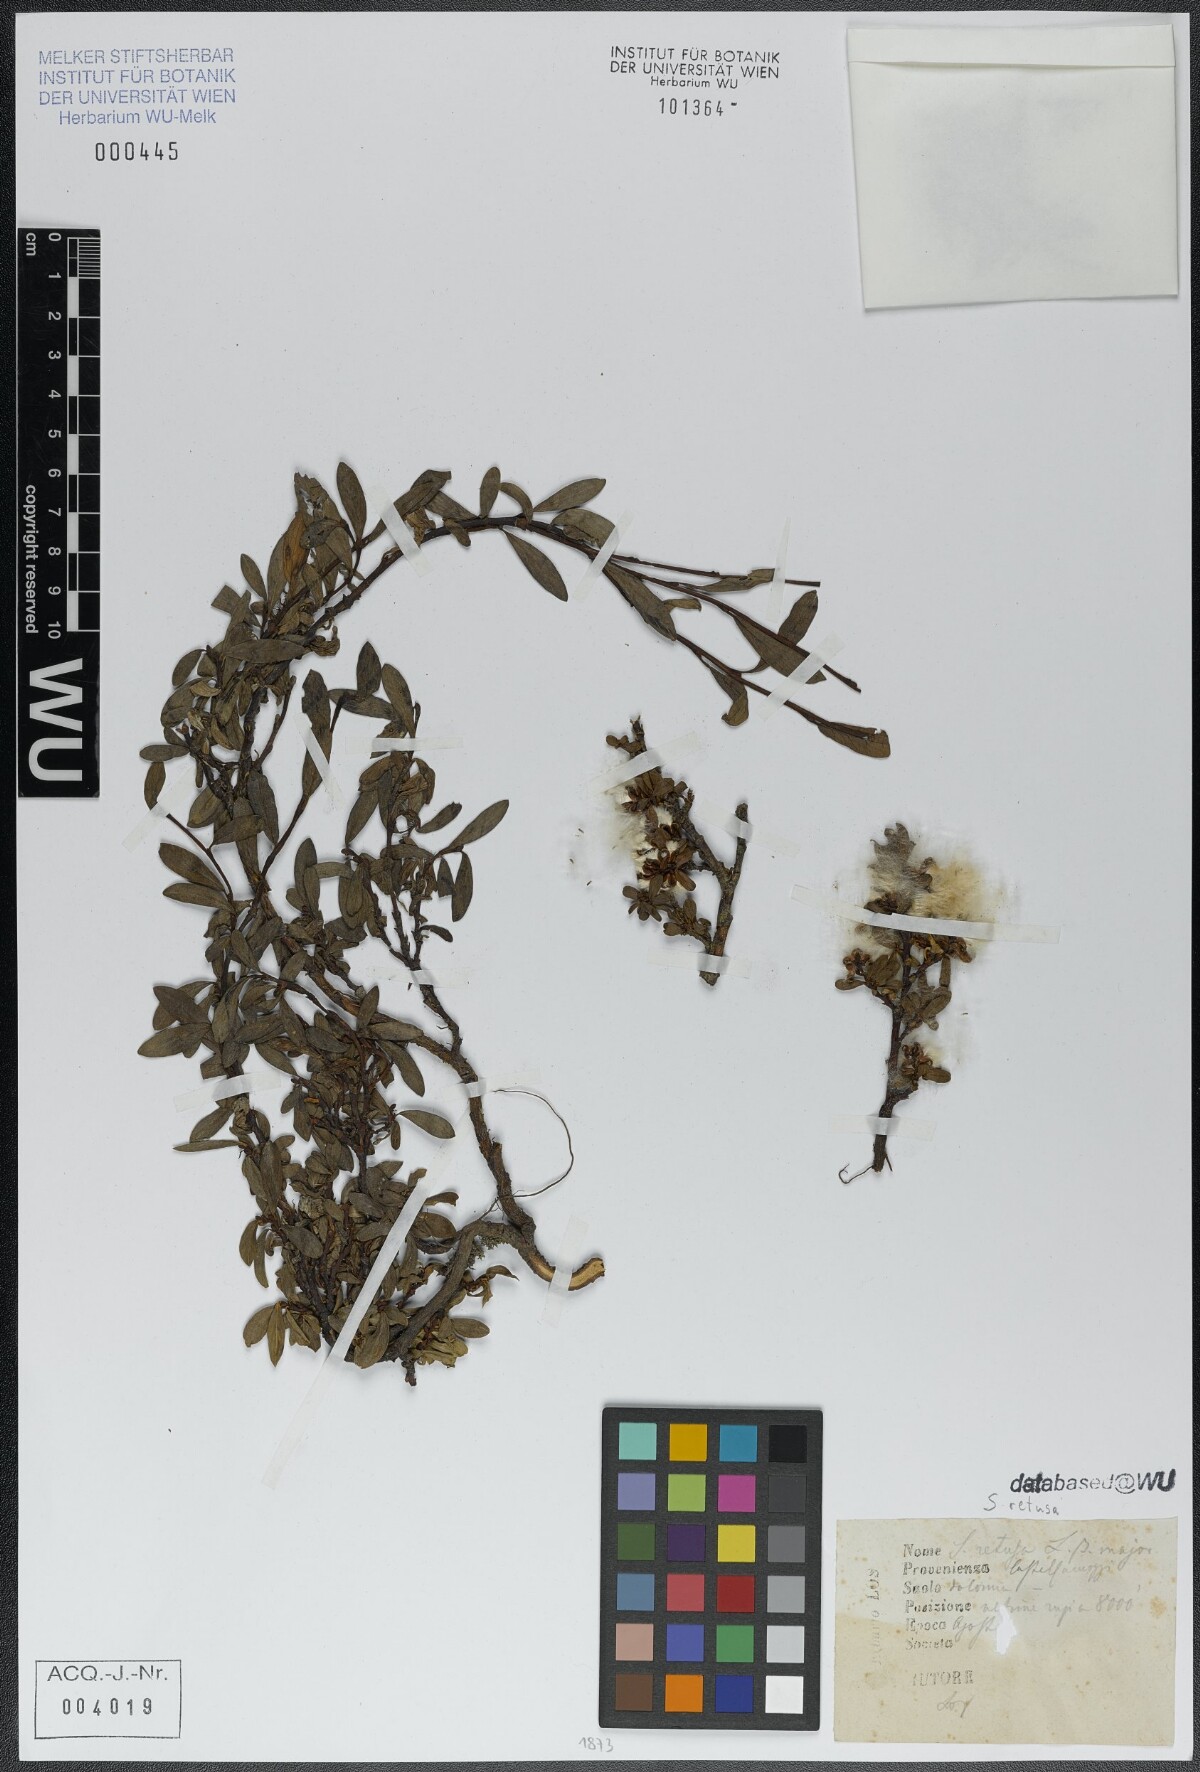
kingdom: Plantae
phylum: Tracheophyta
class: Magnoliopsida
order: Malpighiales
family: Salicaceae
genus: Salix
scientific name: Salix retusa
